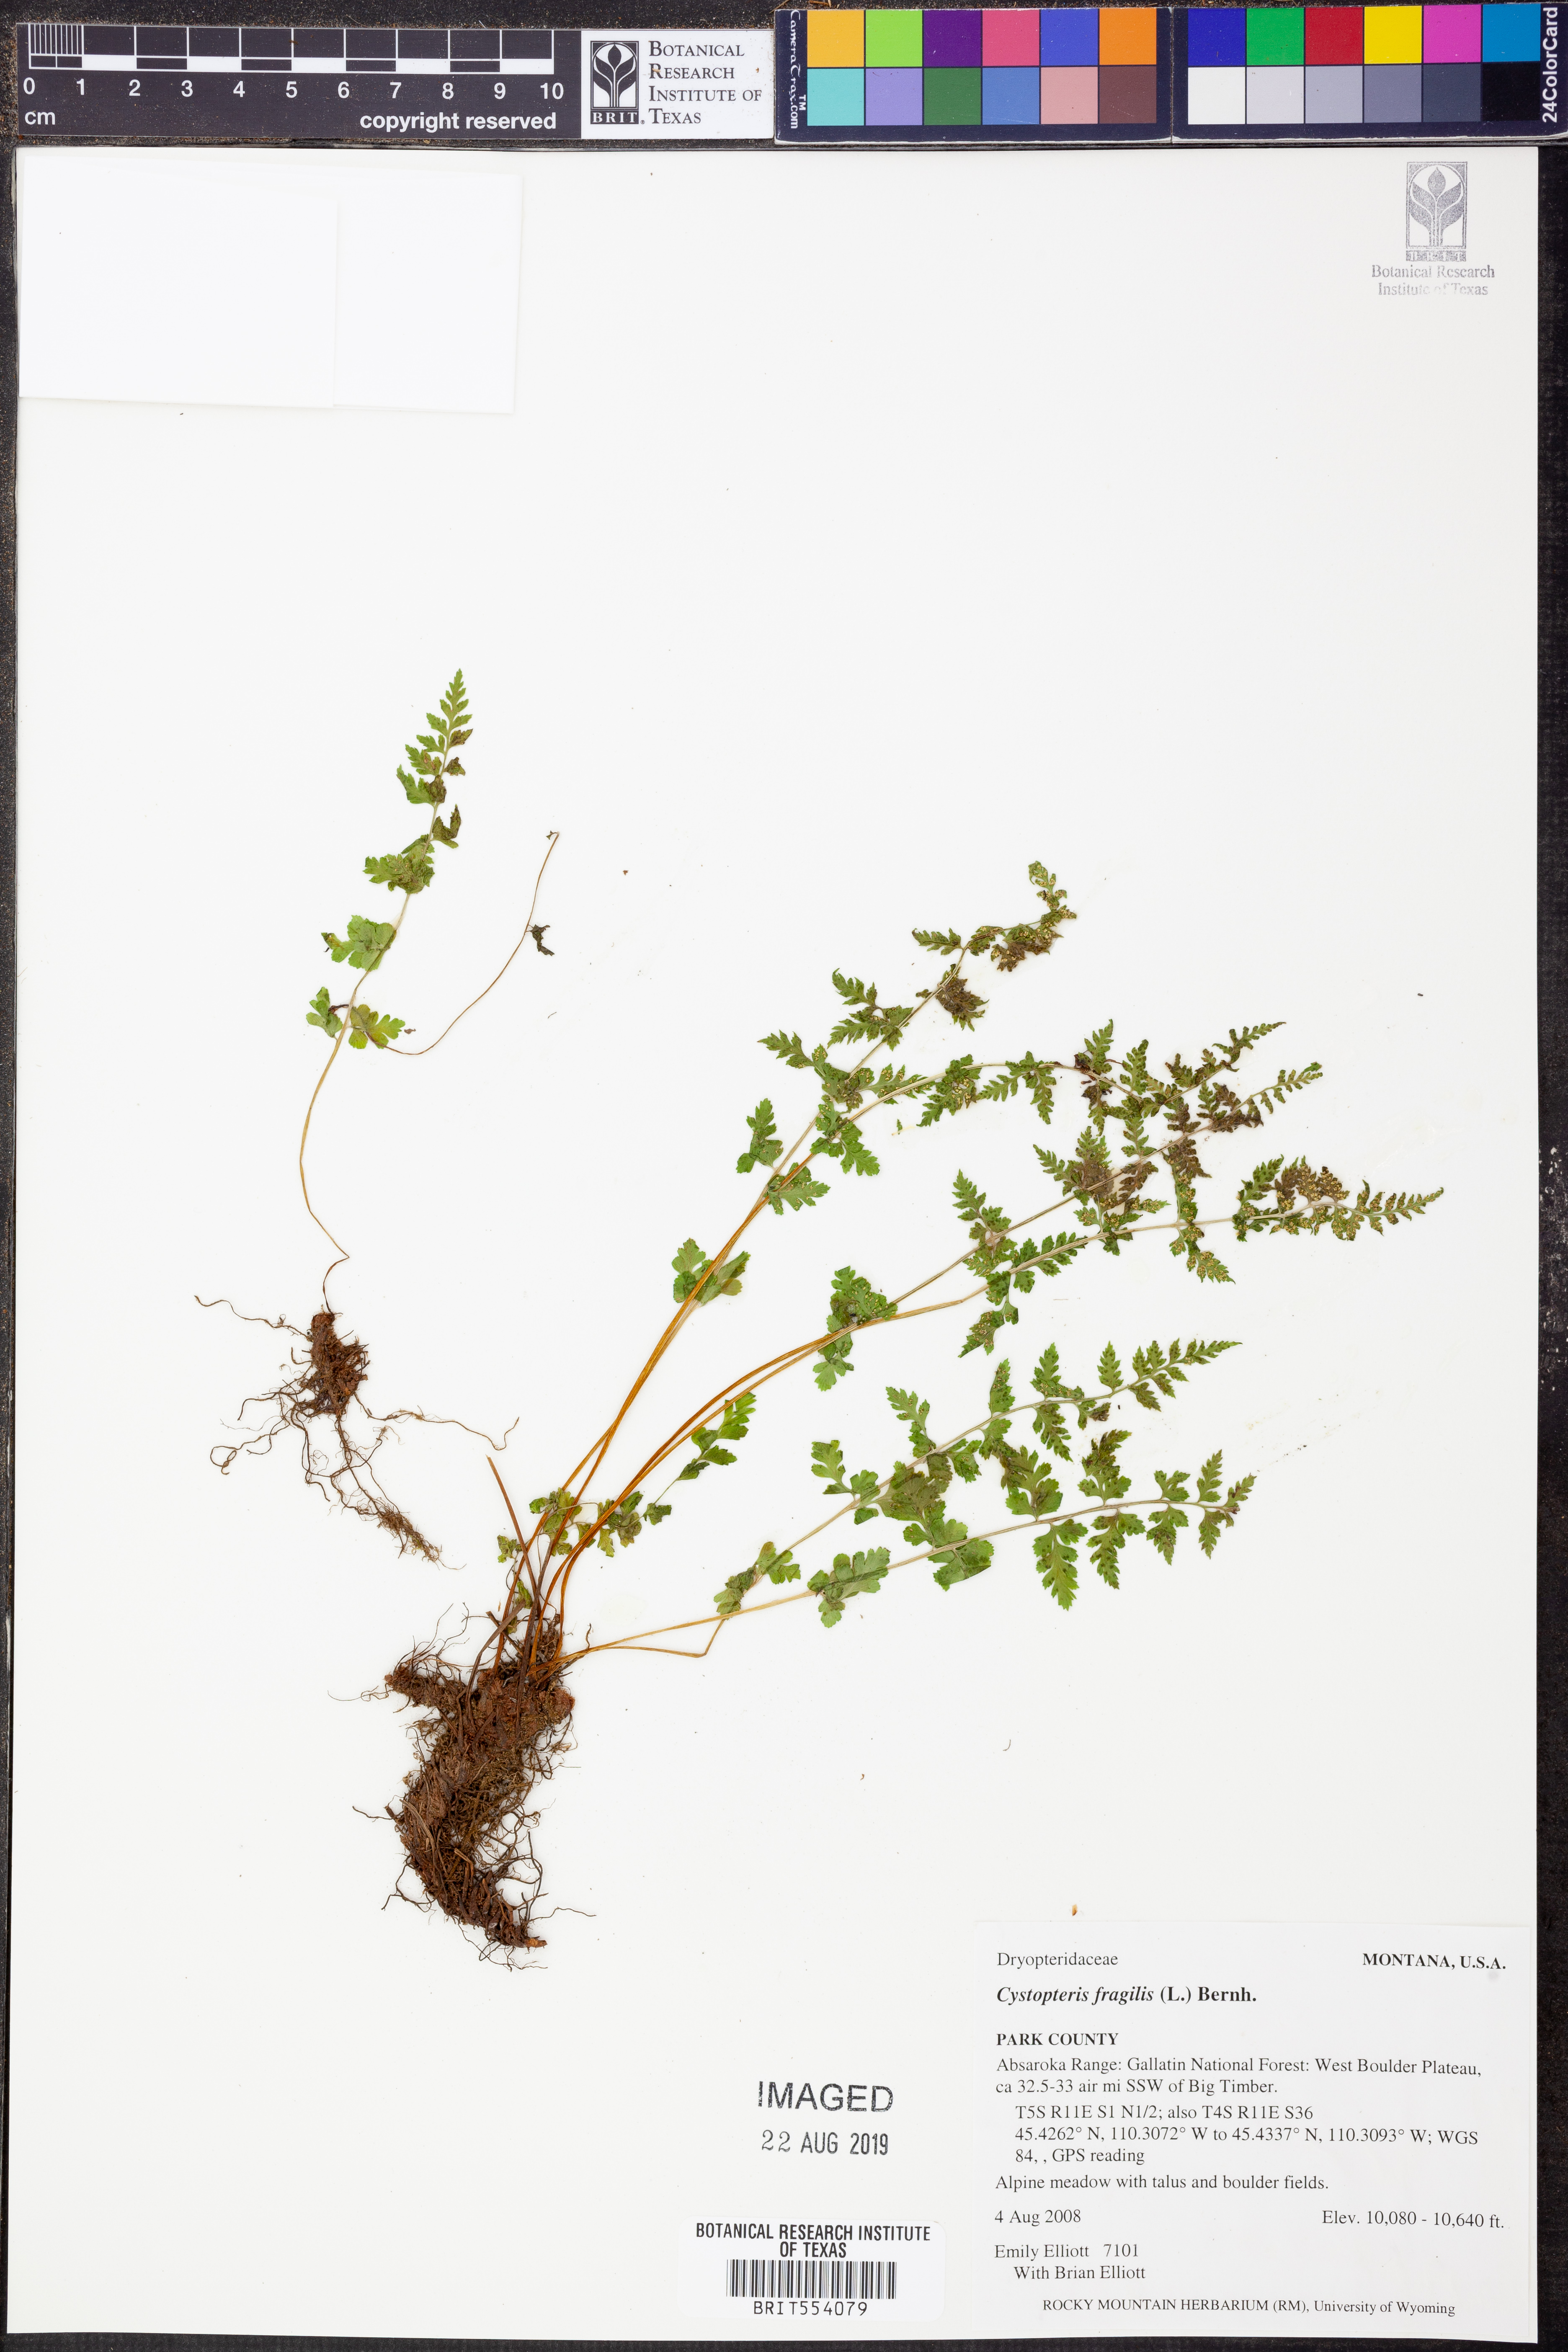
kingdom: Plantae
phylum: Tracheophyta
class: Polypodiopsida
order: Polypodiales
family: Cystopteridaceae
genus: Cystopteris
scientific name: Cystopteris fragilis
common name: Brittle bladder fern
